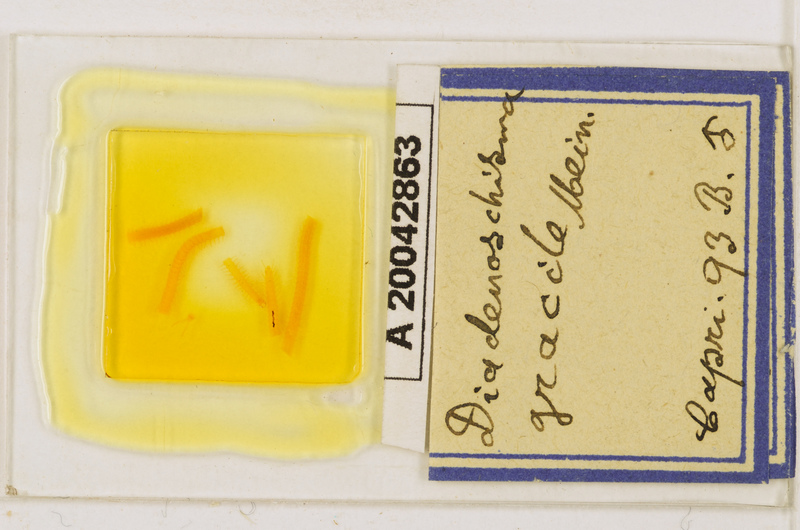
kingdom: Animalia
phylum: Arthropoda
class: Chilopoda
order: Geophilomorpha
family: Himantariidae
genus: Stigmatogaster
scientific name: Stigmatogaster
